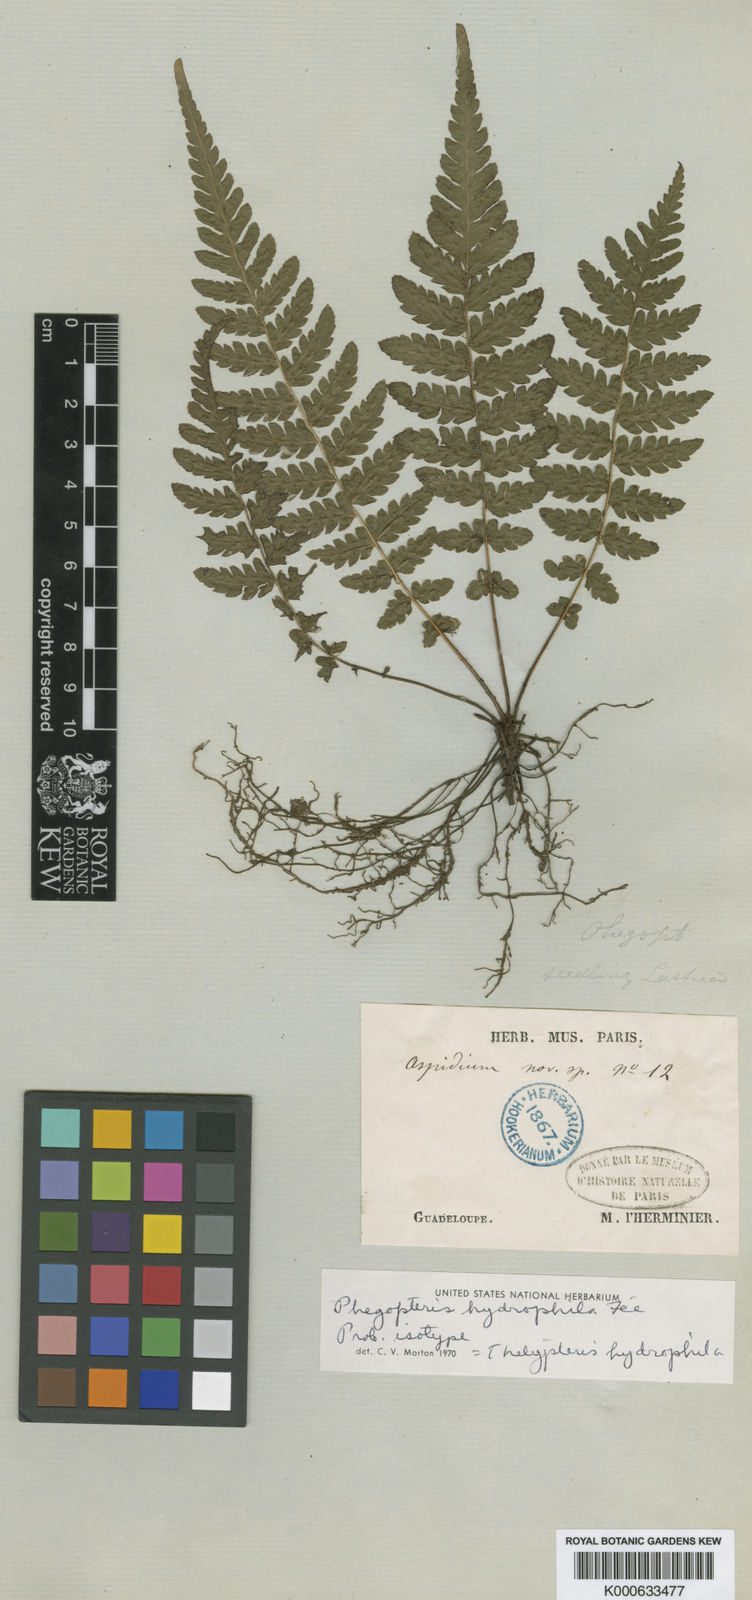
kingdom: Plantae
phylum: Tracheophyta
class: Polypodiopsida
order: Polypodiales
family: Thelypteridaceae
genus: Amauropelta
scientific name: Amauropelta hydrophila
